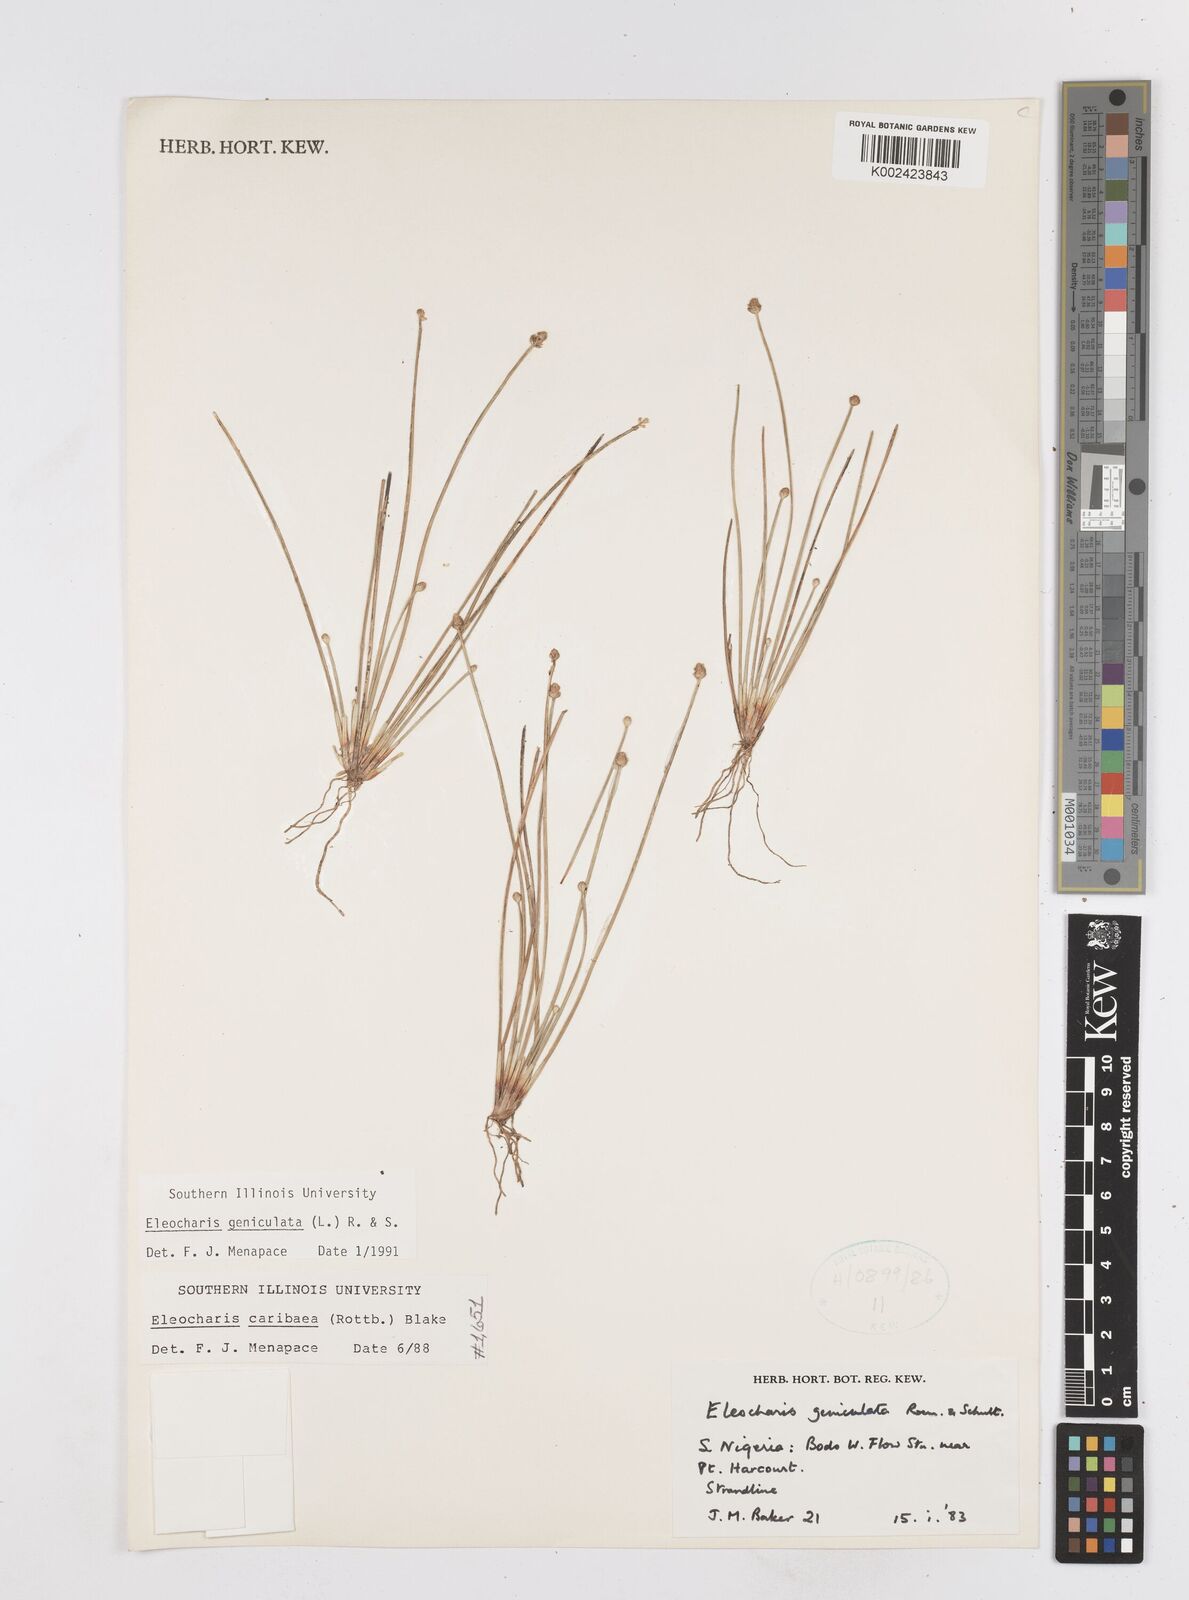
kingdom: Plantae
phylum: Tracheophyta
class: Liliopsida
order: Poales
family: Cyperaceae
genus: Eleocharis
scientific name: Eleocharis geniculata
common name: Canada spikesedge
